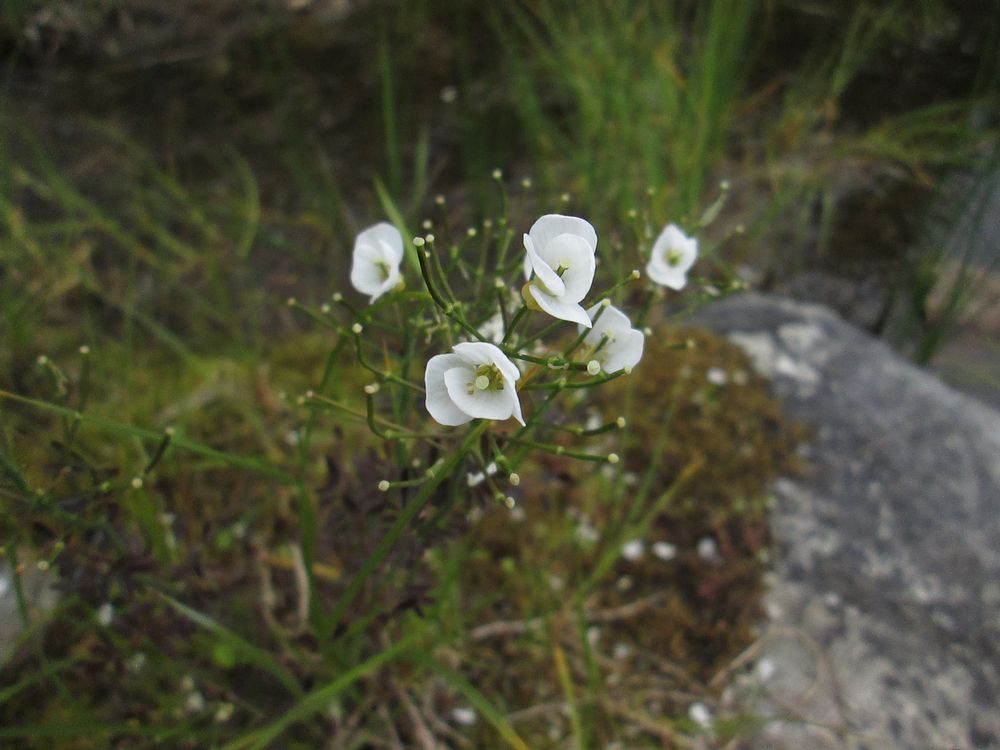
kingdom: Plantae
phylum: Tracheophyta
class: Magnoliopsida
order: Brassicales
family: Brassicaceae
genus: Cardamine
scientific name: Cardamine dentata
